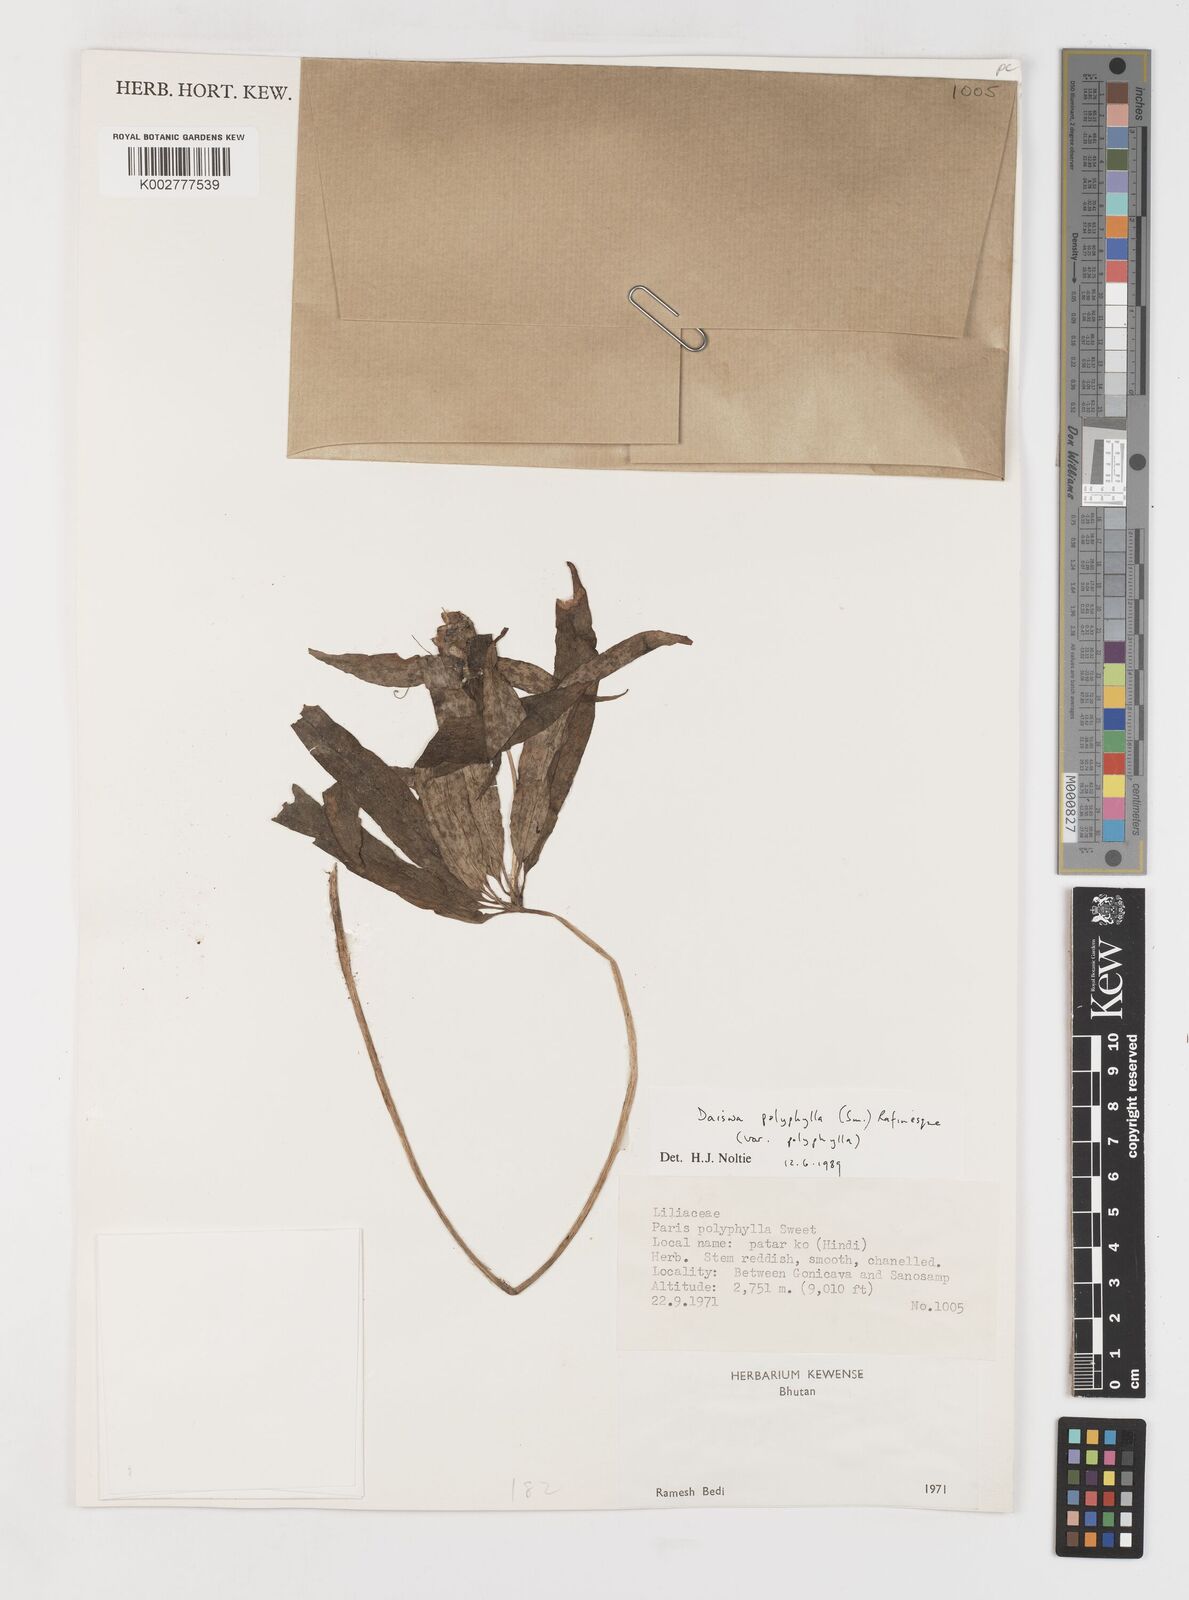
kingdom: Plantae
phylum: Tracheophyta
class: Liliopsida
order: Liliales
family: Melanthiaceae
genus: Paris
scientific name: Paris polyphylla
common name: Love apple
